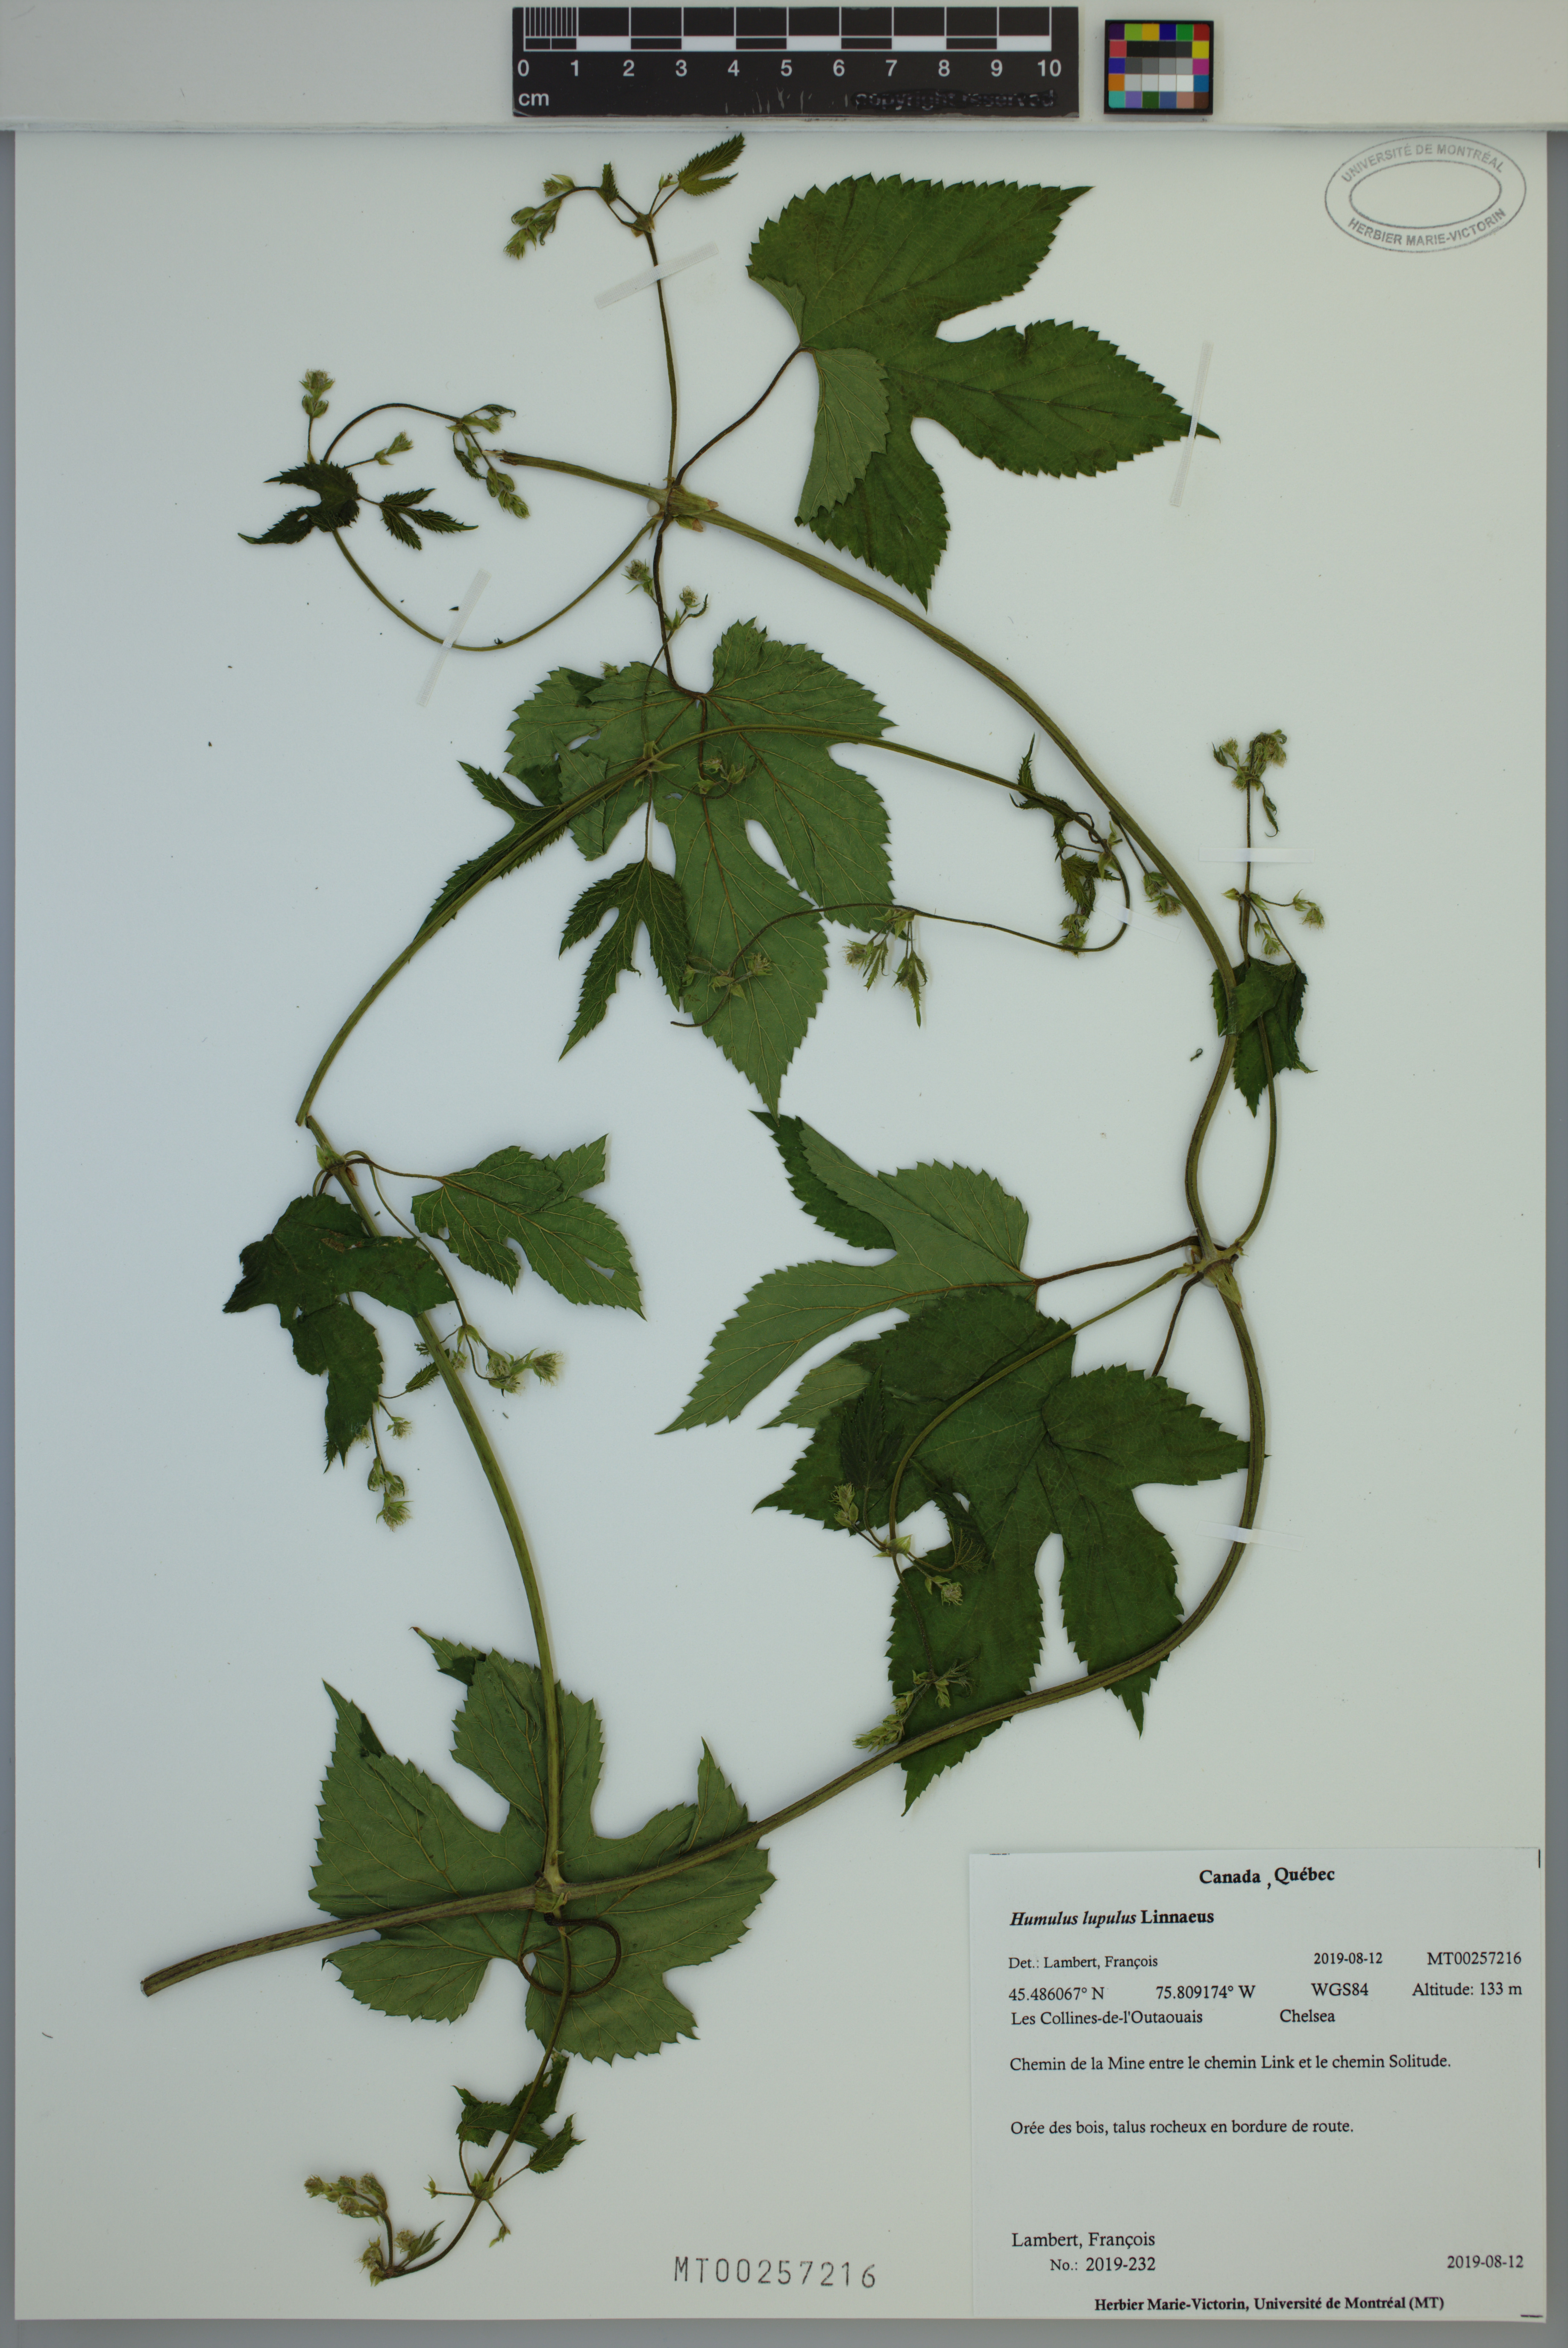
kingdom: Plantae
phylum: Tracheophyta
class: Magnoliopsida
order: Rosales
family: Cannabaceae
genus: Humulus
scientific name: Humulus lupulus
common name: Hop
